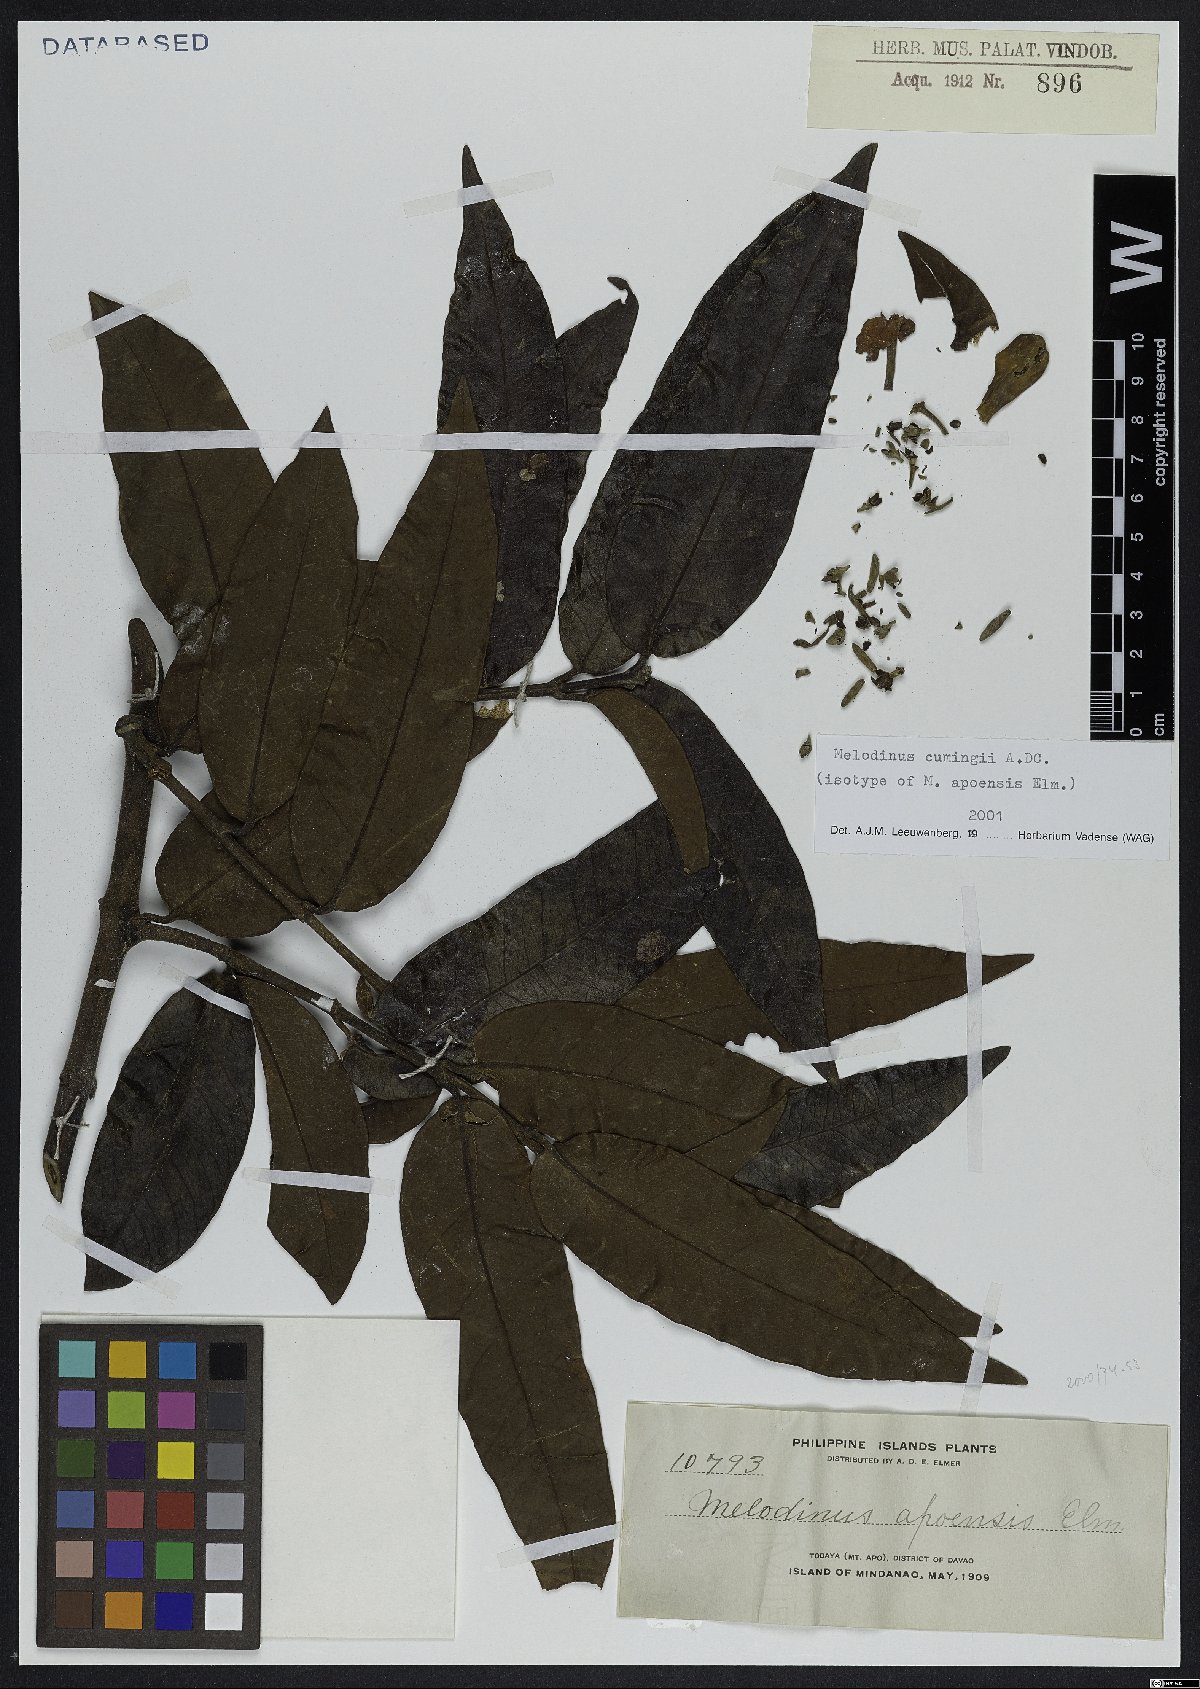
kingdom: Plantae
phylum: Tracheophyta
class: Magnoliopsida
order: Gentianales
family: Apocynaceae
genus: Melodinus
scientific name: Melodinus cumingii
